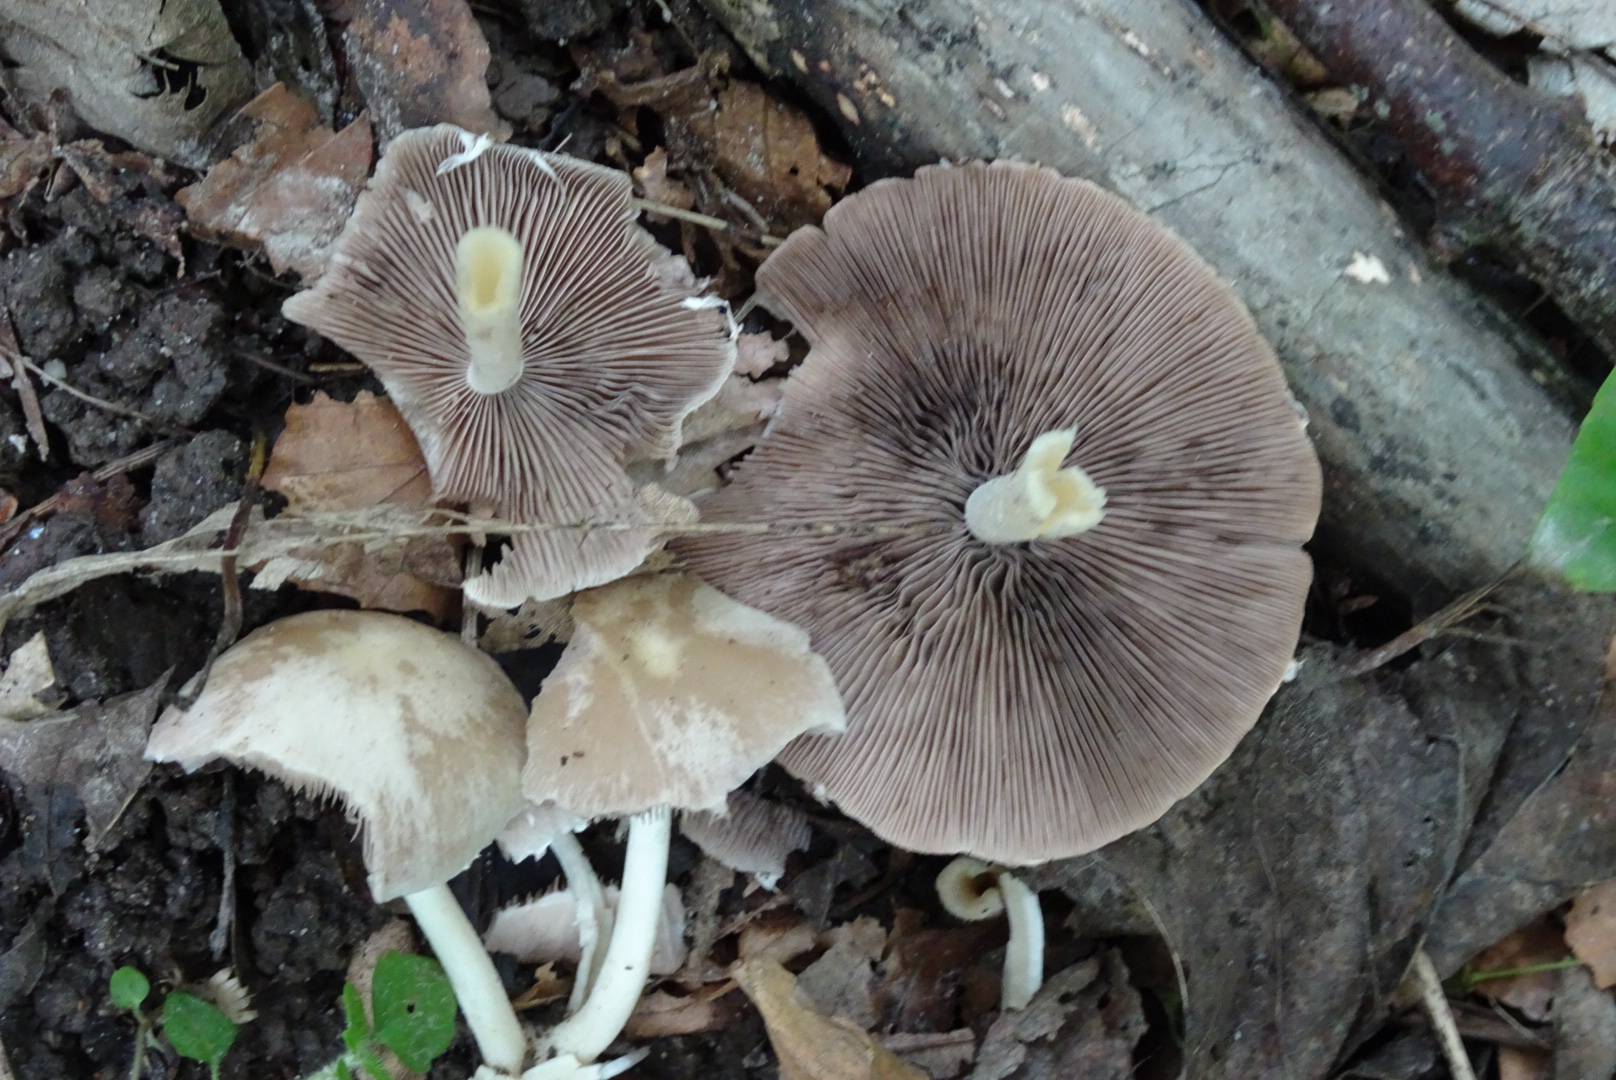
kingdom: Fungi
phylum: Basidiomycota
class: Agaricomycetes
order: Agaricales
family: Psathyrellaceae
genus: Candolleomyces
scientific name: Candolleomyces candolleanus
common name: Candolles mørkhat
